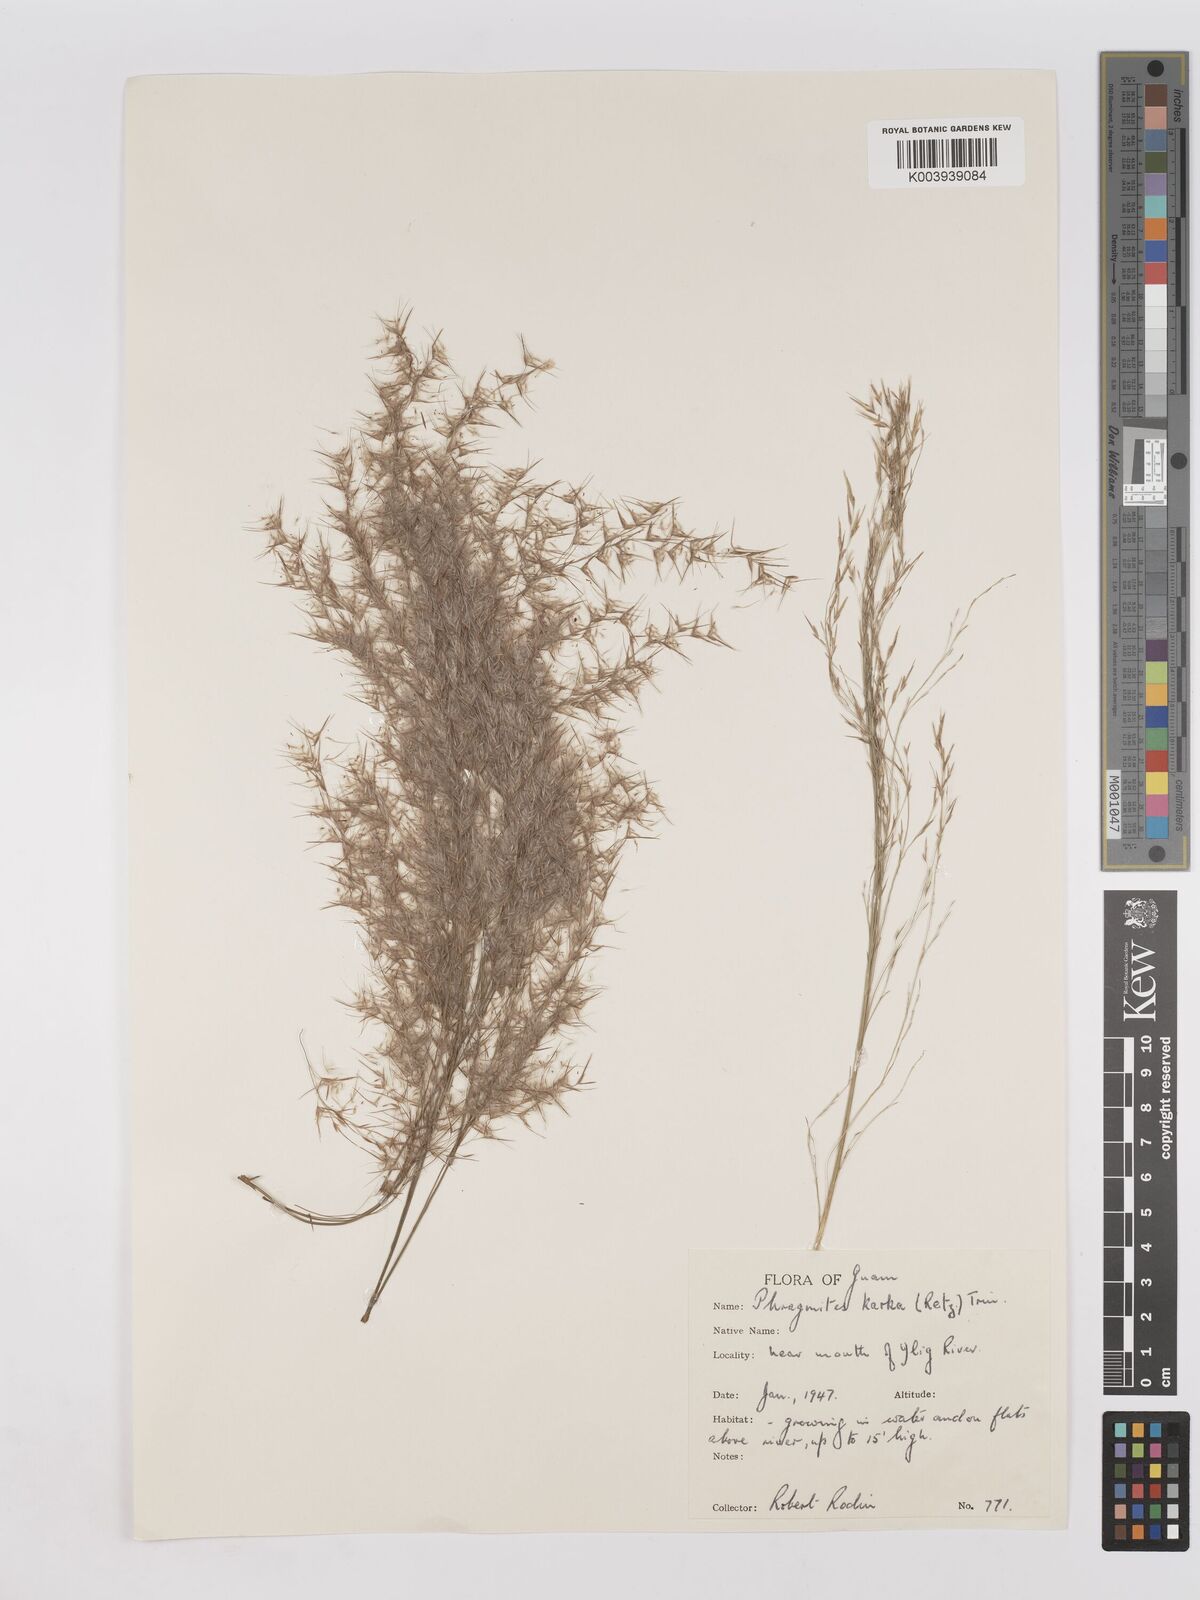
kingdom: Plantae
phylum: Tracheophyta
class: Liliopsida
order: Poales
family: Poaceae
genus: Phragmites
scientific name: Phragmites karka
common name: Tropical reed
